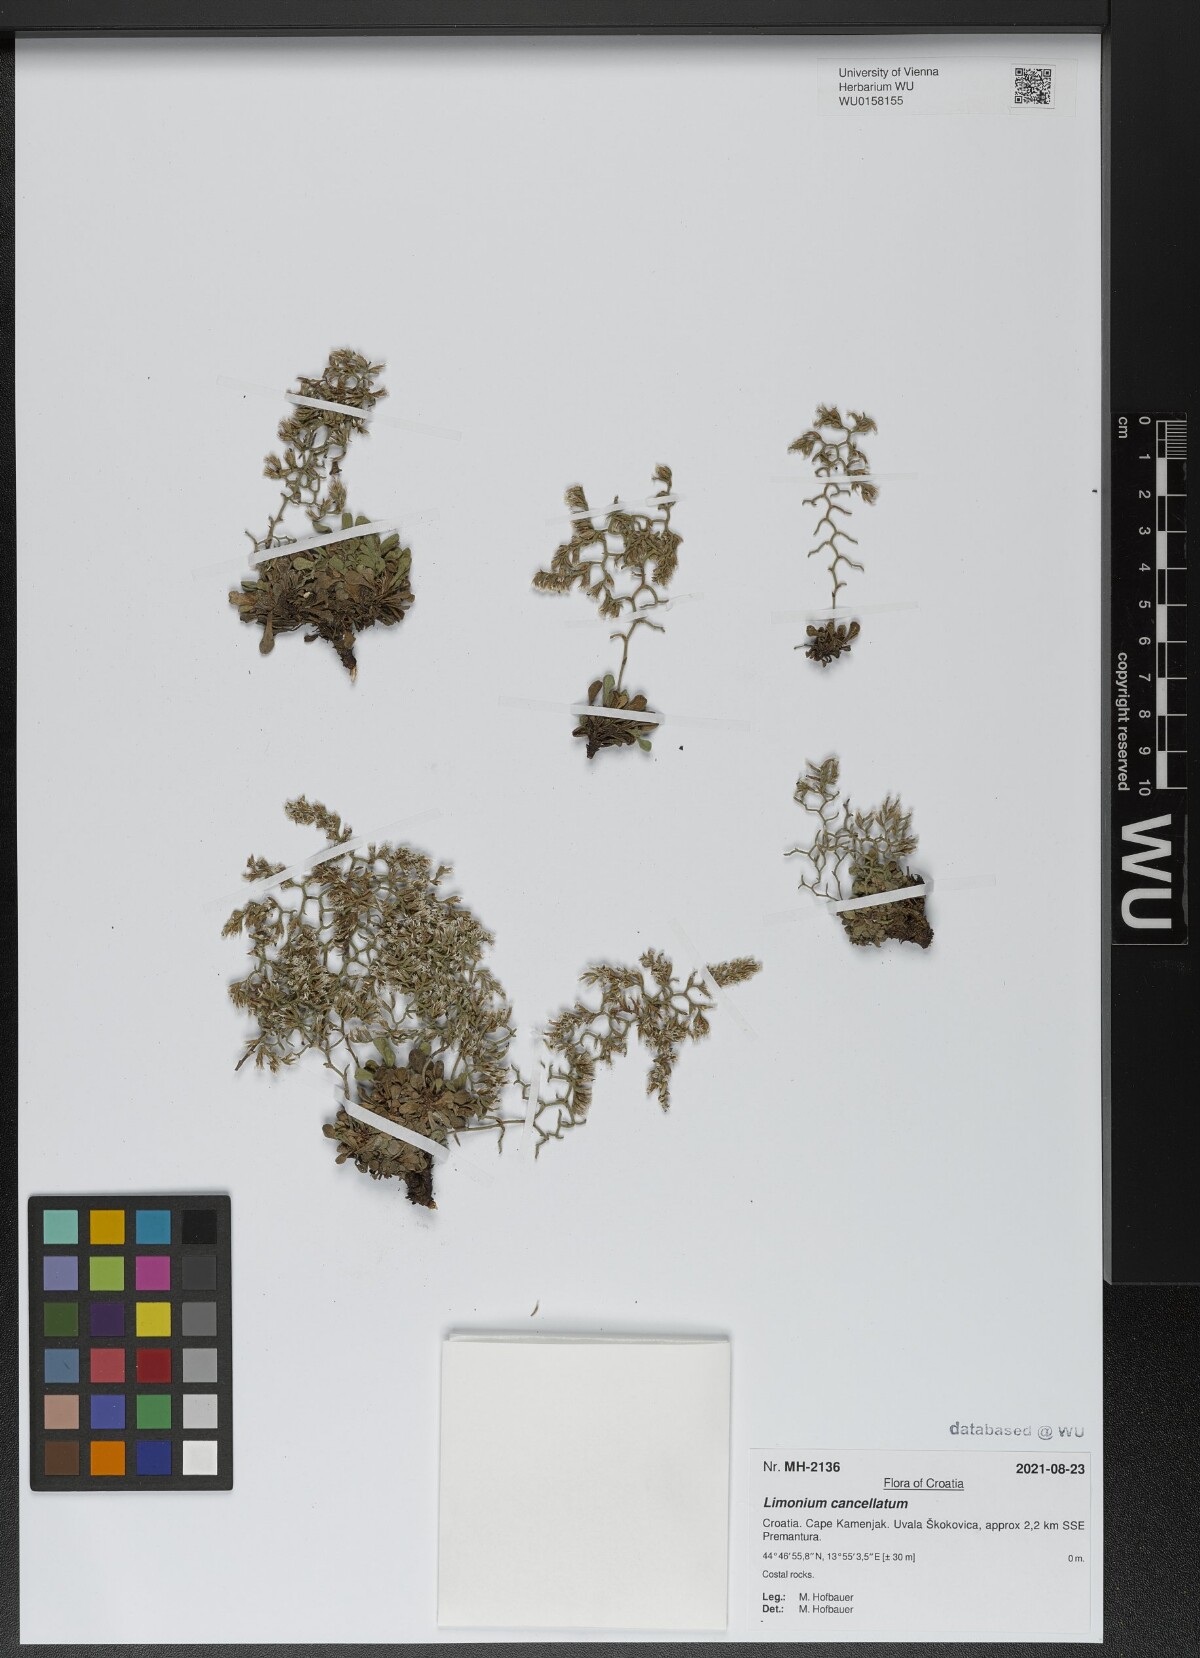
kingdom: Plantae
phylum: Tracheophyta
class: Magnoliopsida
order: Caryophyllales
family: Plumbaginaceae
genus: Limonium
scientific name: Limonium cancellatum
